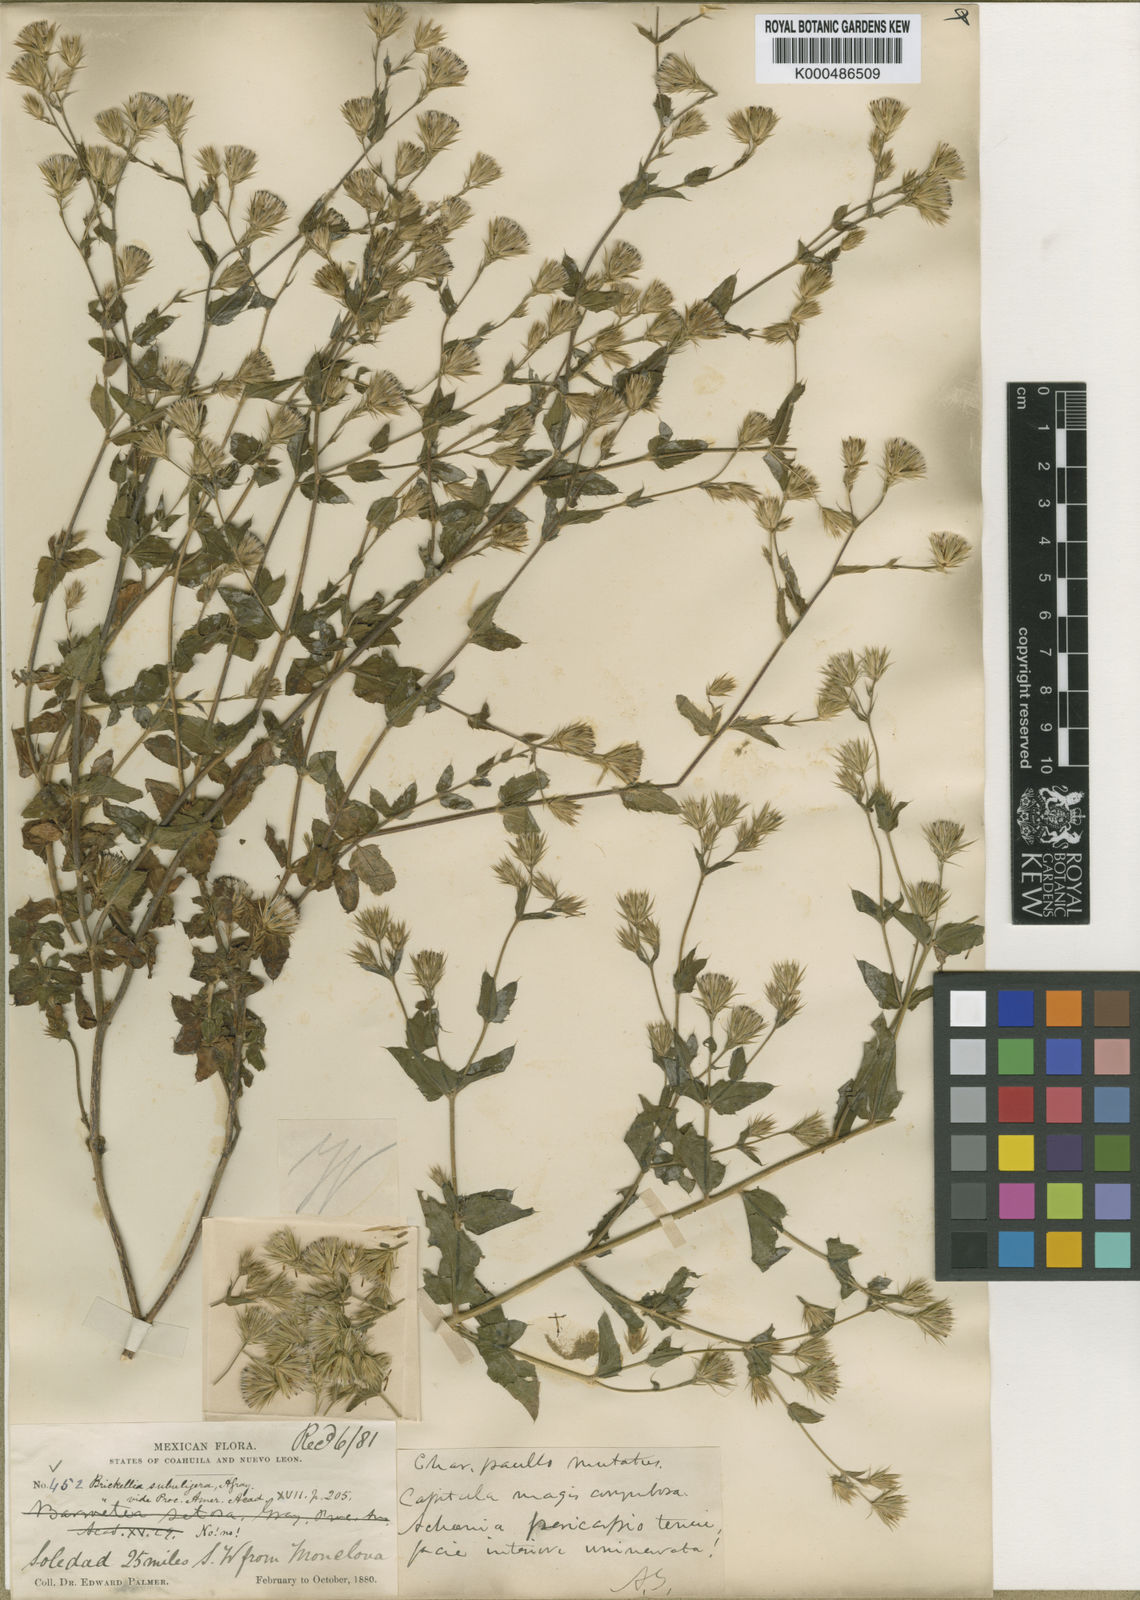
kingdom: Plantae
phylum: Tracheophyta
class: Magnoliopsida
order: Asterales
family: Asteraceae
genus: Brickellia
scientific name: Brickellia subuligera
